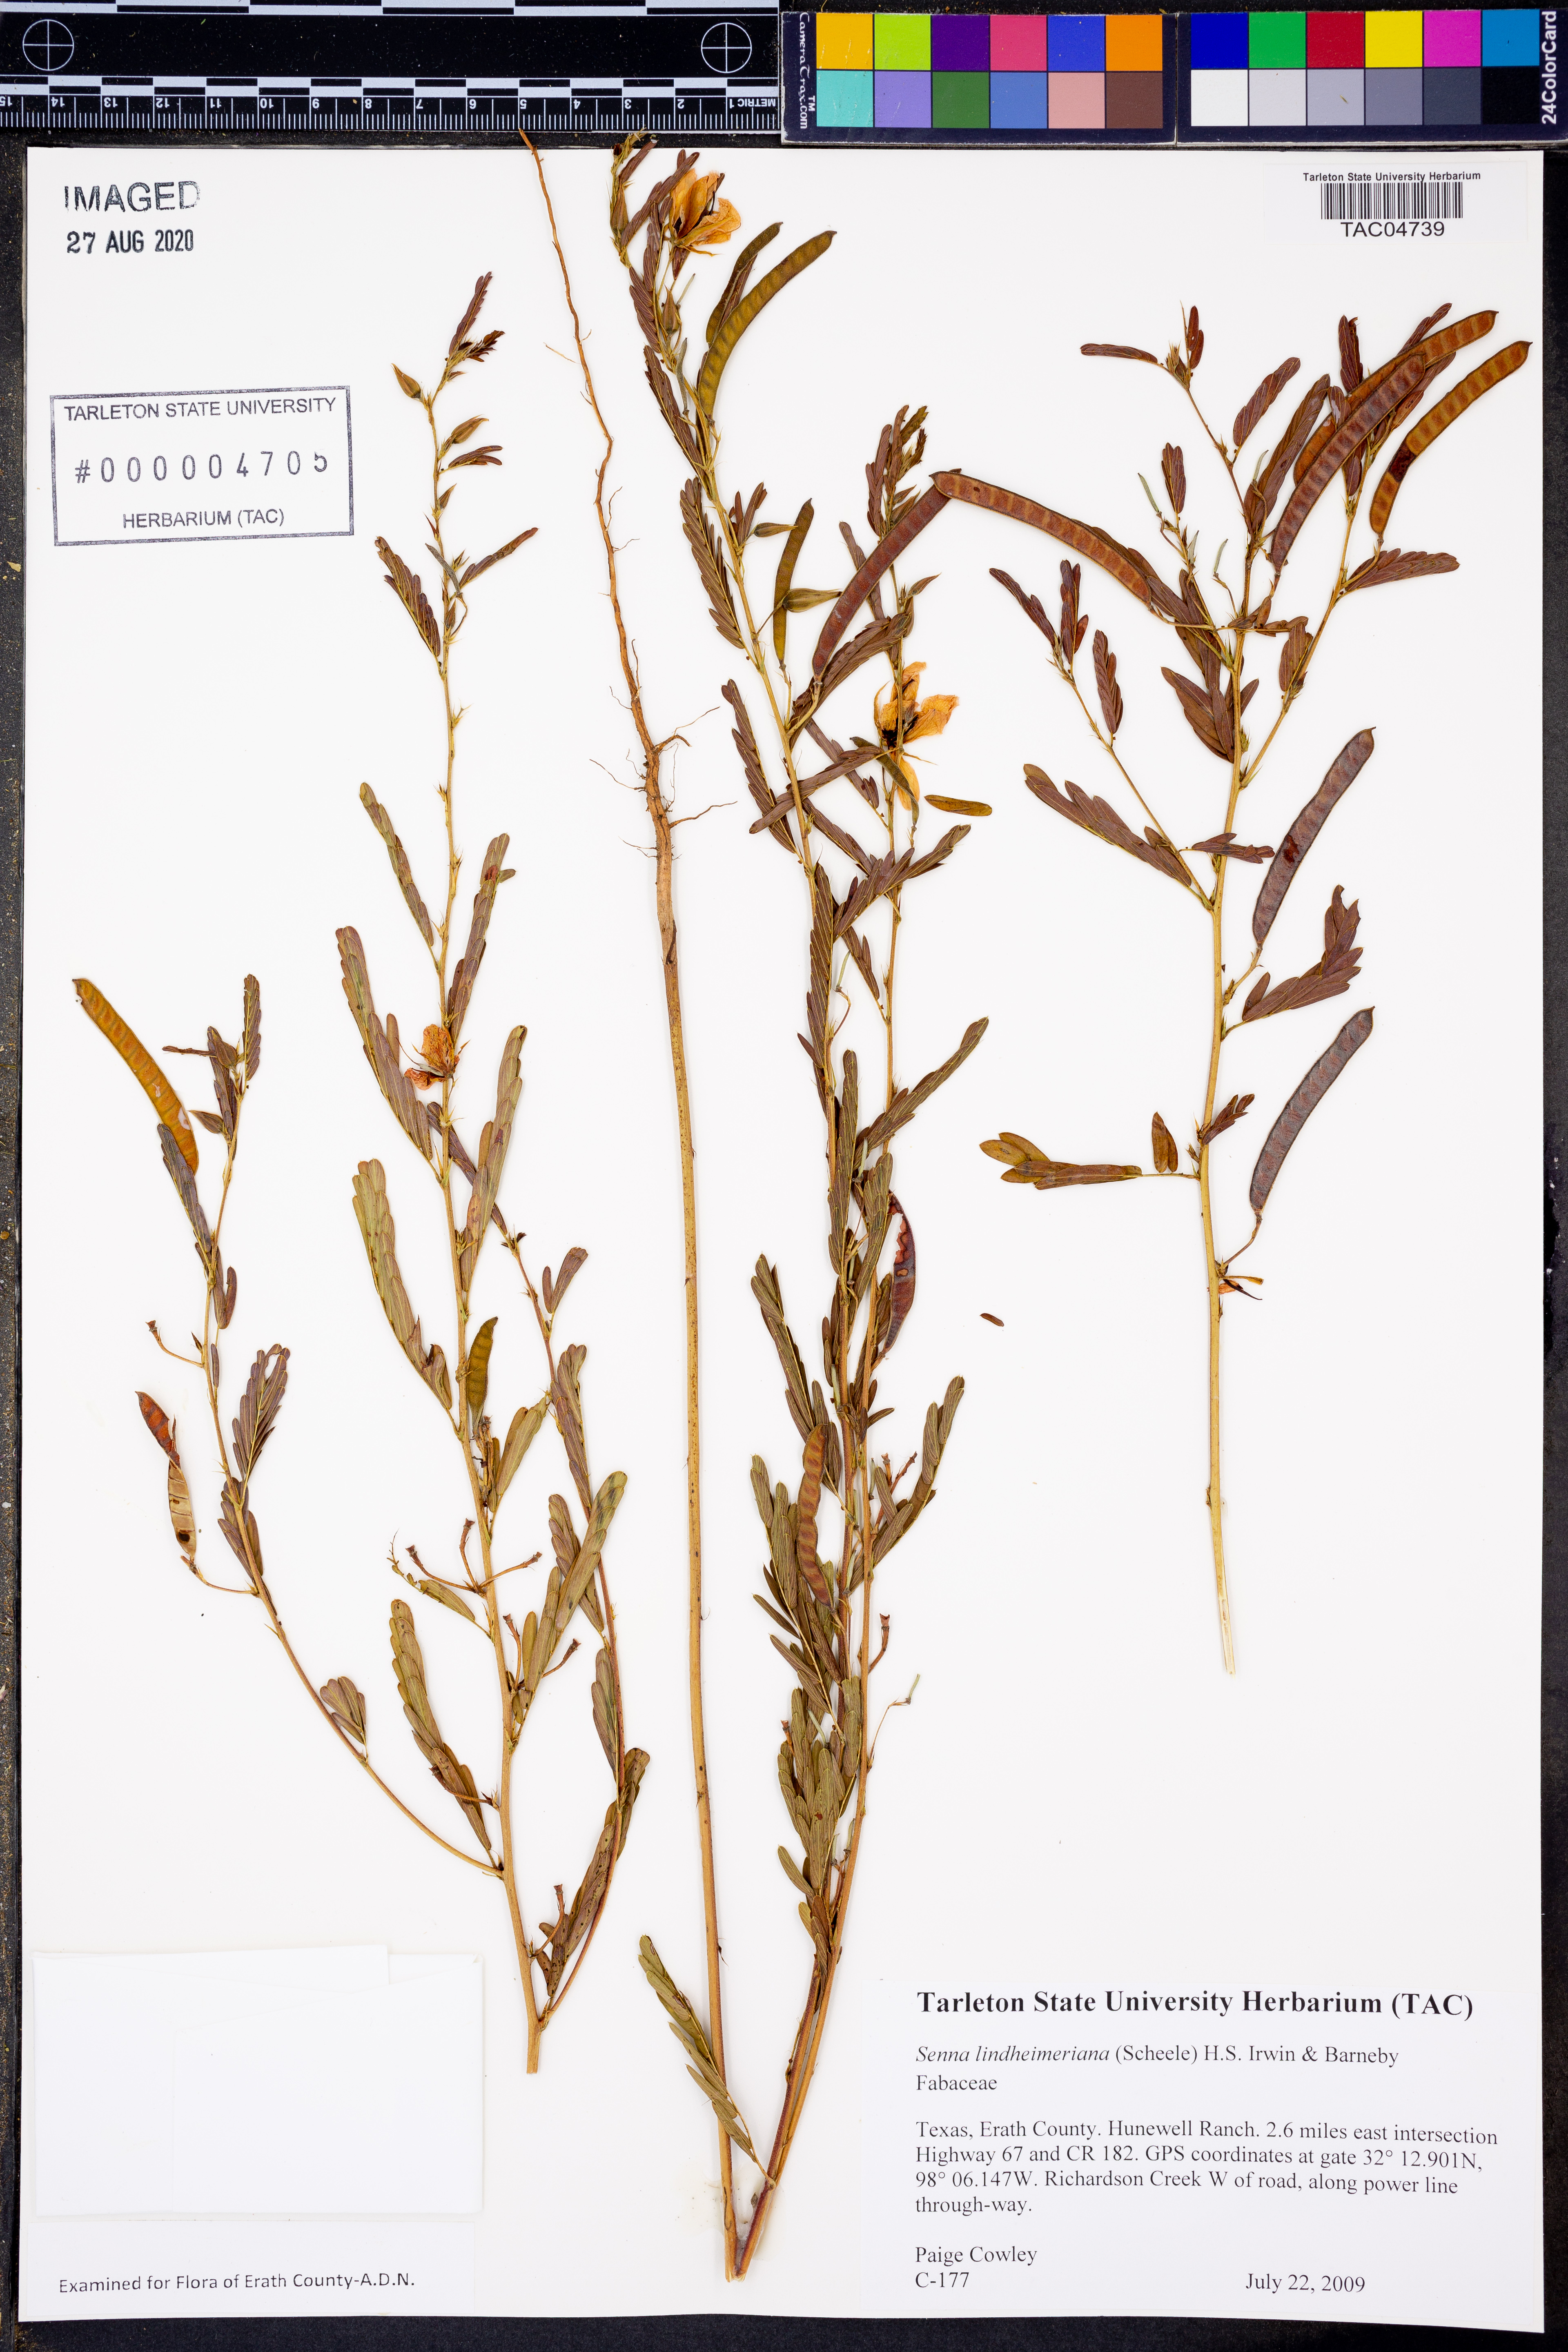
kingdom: Plantae
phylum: Tracheophyta
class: Magnoliopsida
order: Fabales
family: Fabaceae
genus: Senna
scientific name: Senna lindheimeriana
